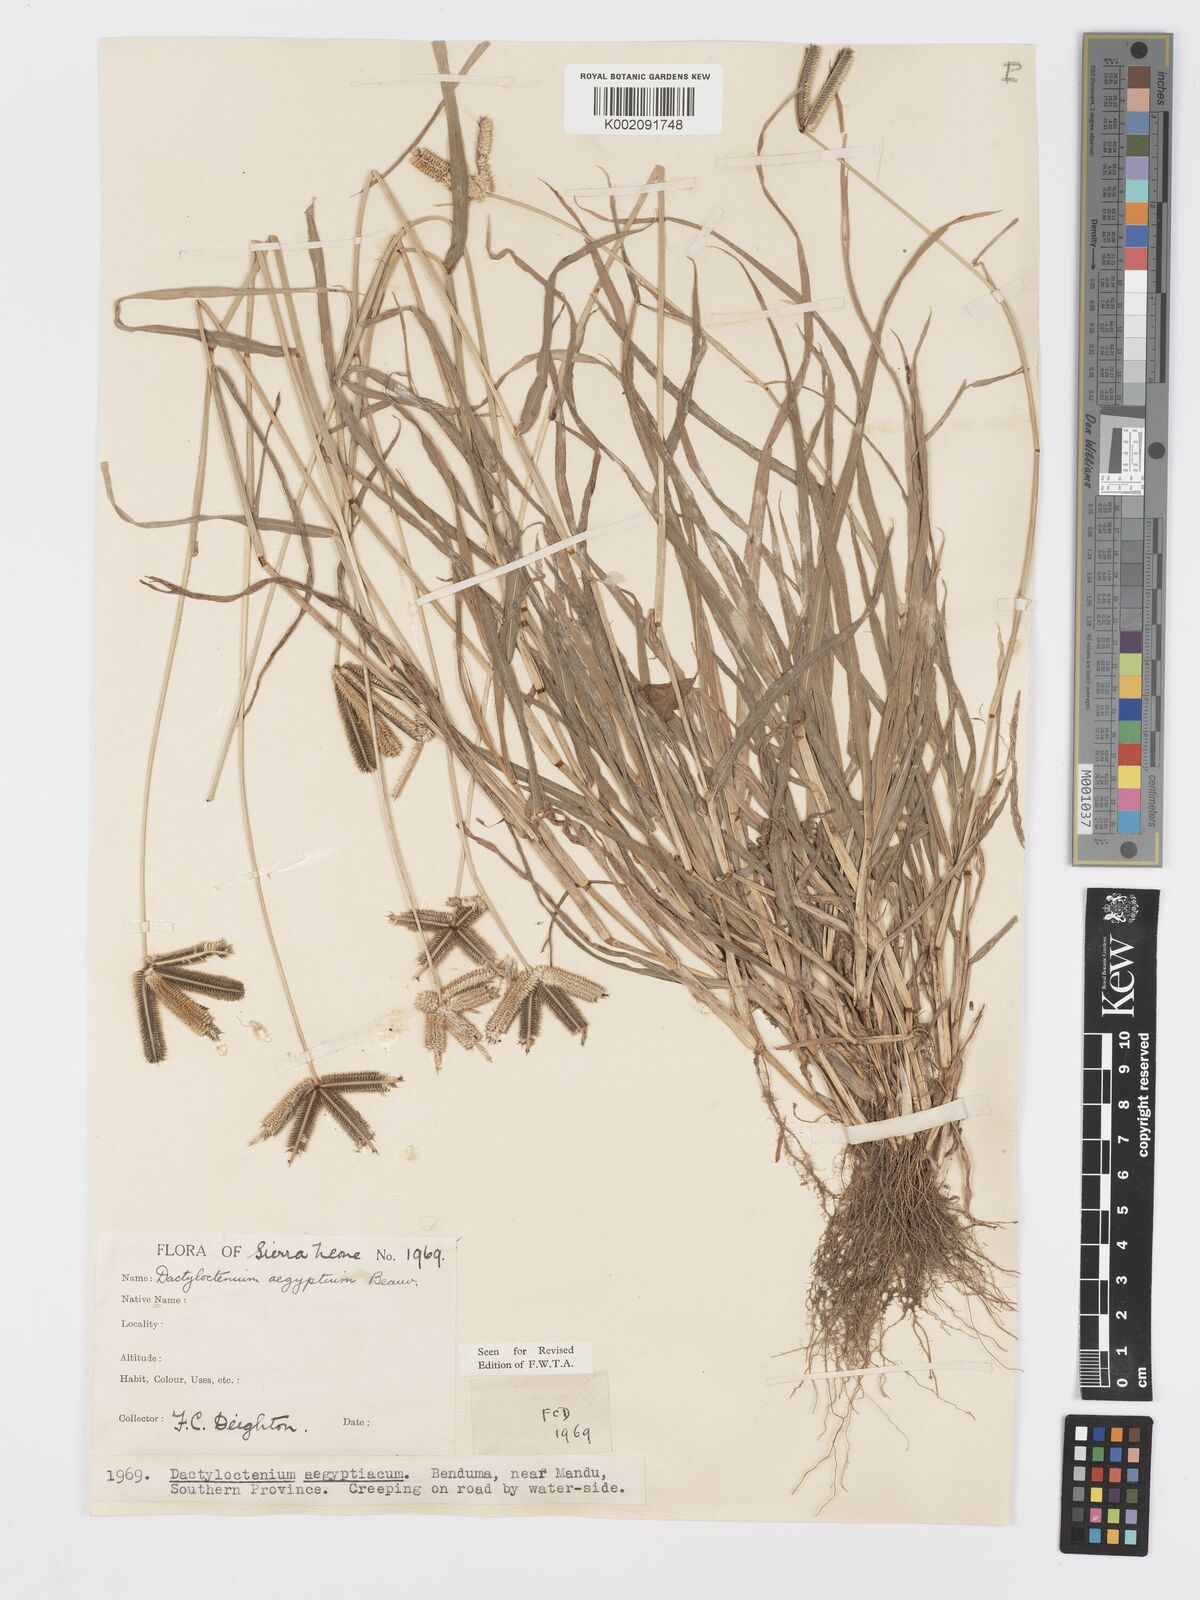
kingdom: Plantae
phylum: Tracheophyta
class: Liliopsida
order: Poales
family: Poaceae
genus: Dactyloctenium
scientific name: Dactyloctenium aegyptium
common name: Egyptian grass
